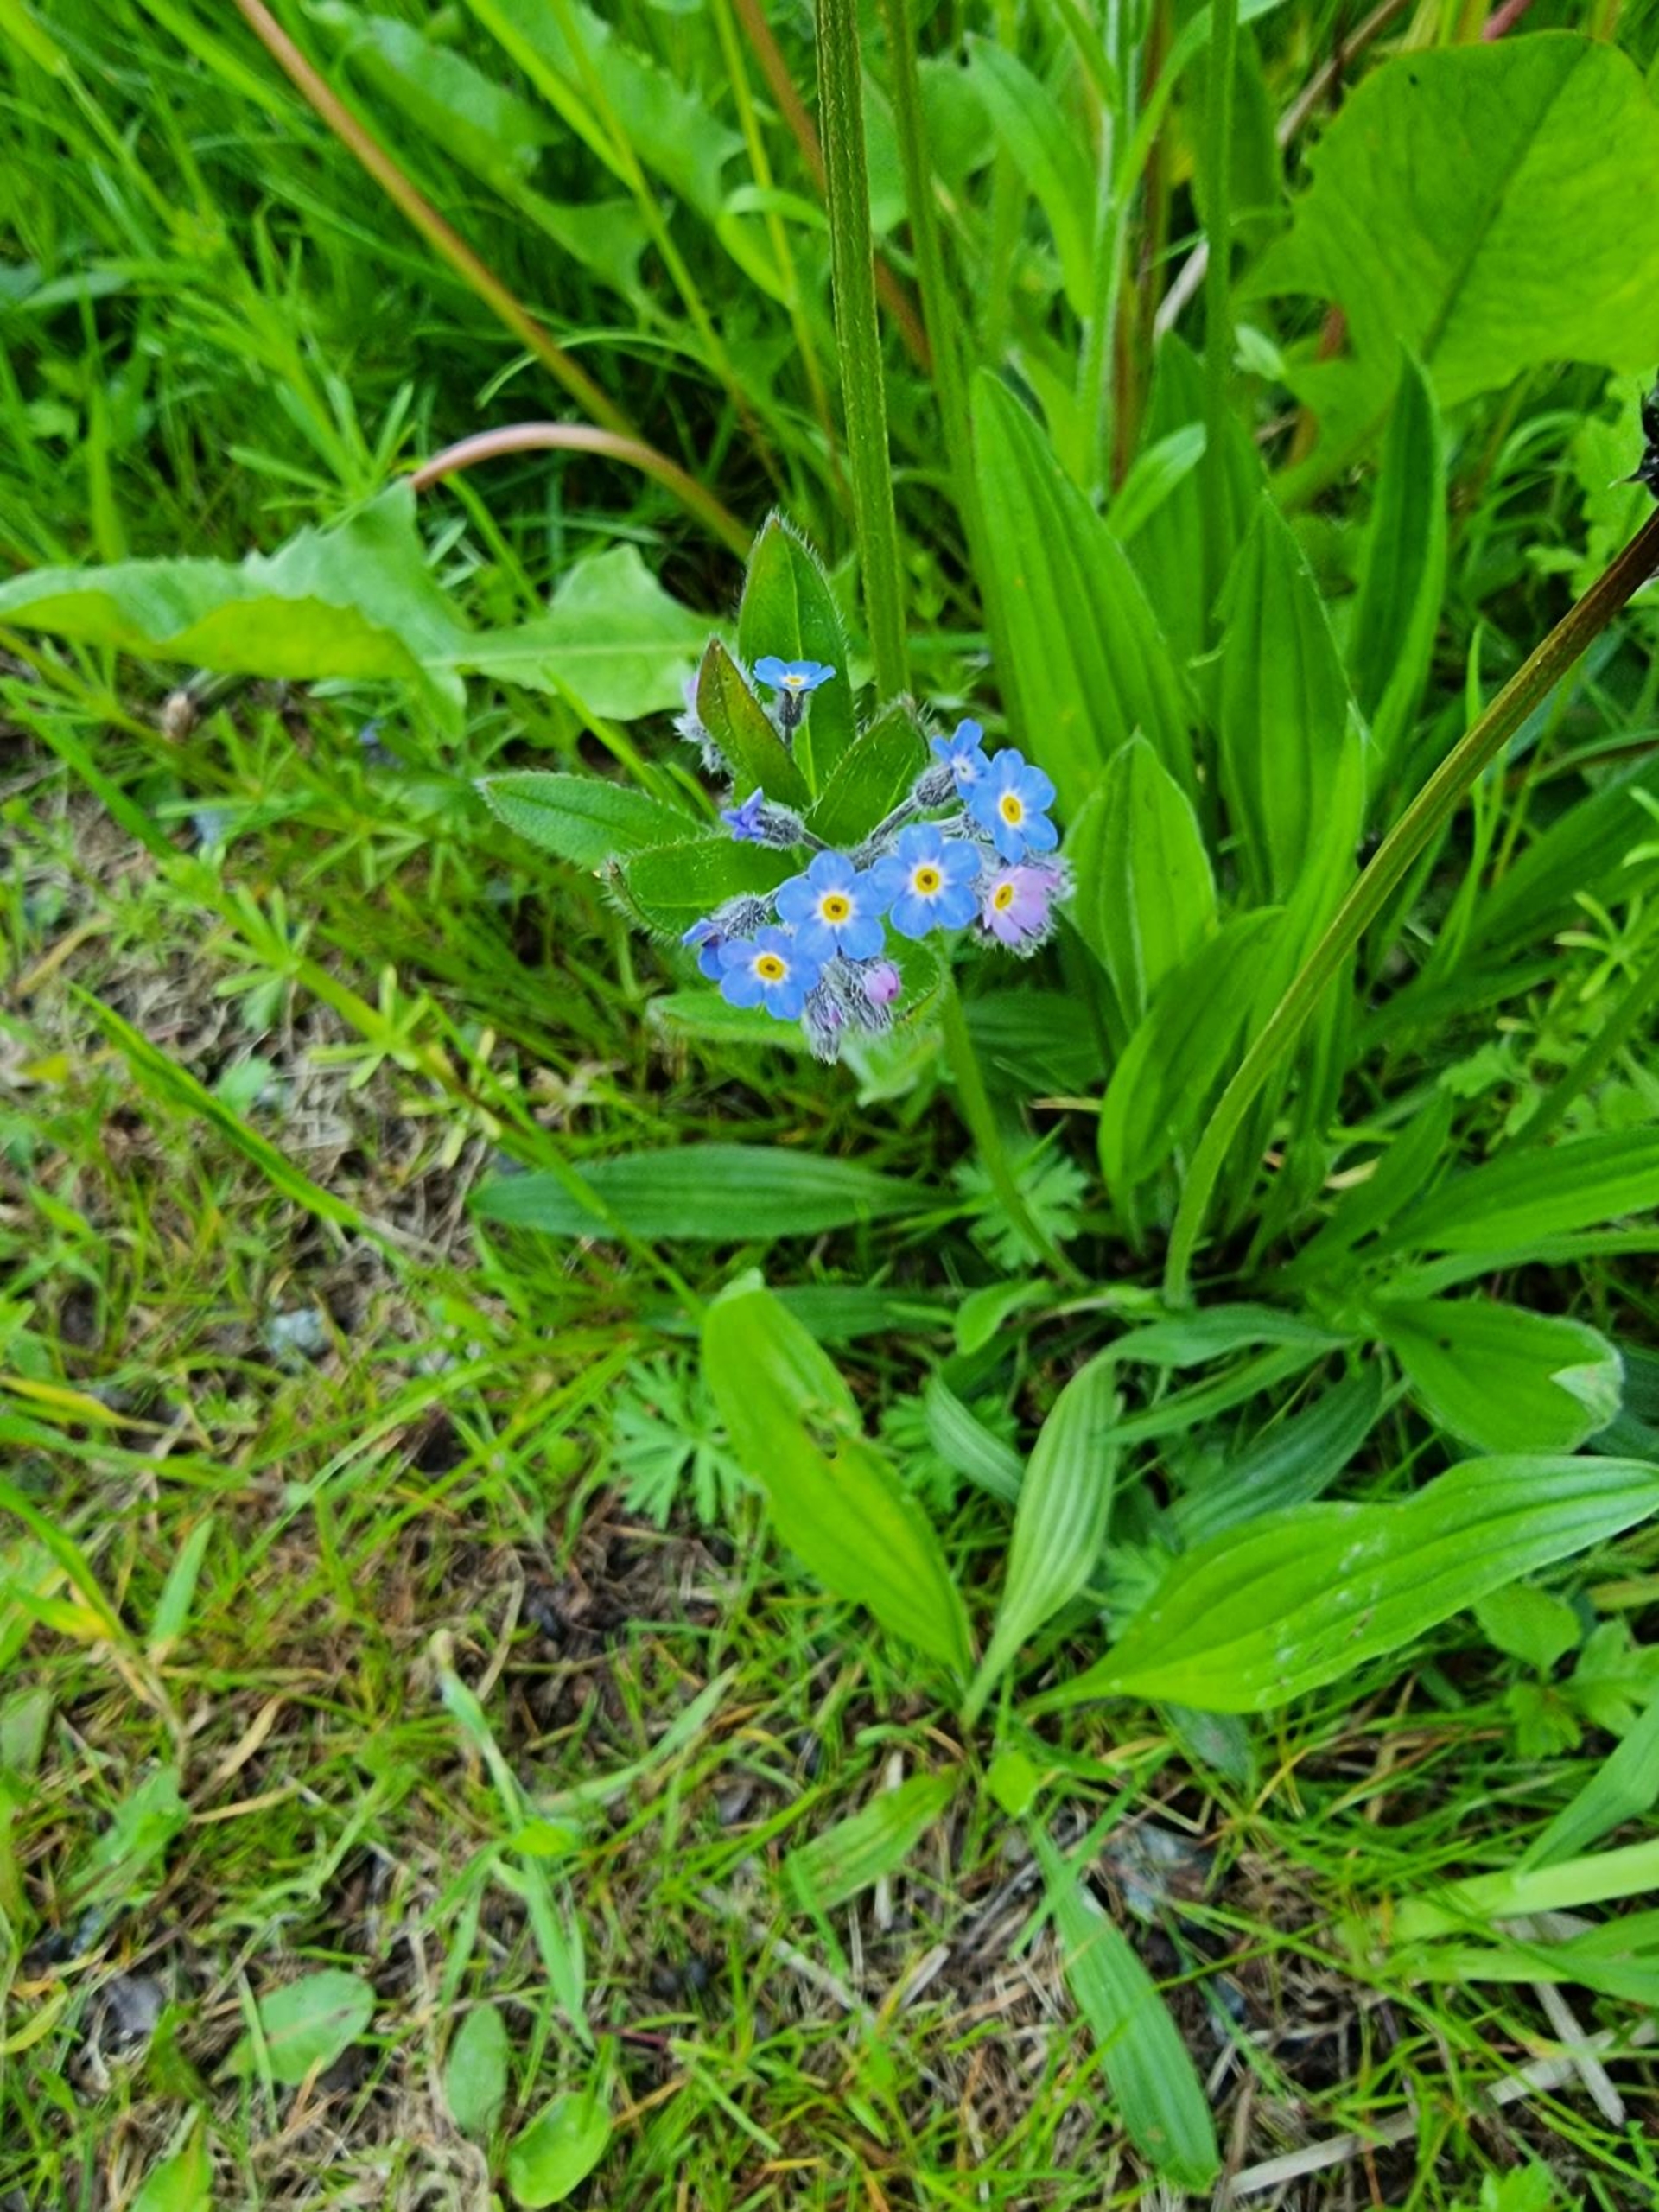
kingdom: Plantae
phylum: Tracheophyta
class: Magnoliopsida
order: Boraginales
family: Boraginaceae
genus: Myosotis
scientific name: Myosotis sylvatica
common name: Skov-forglemmigej
